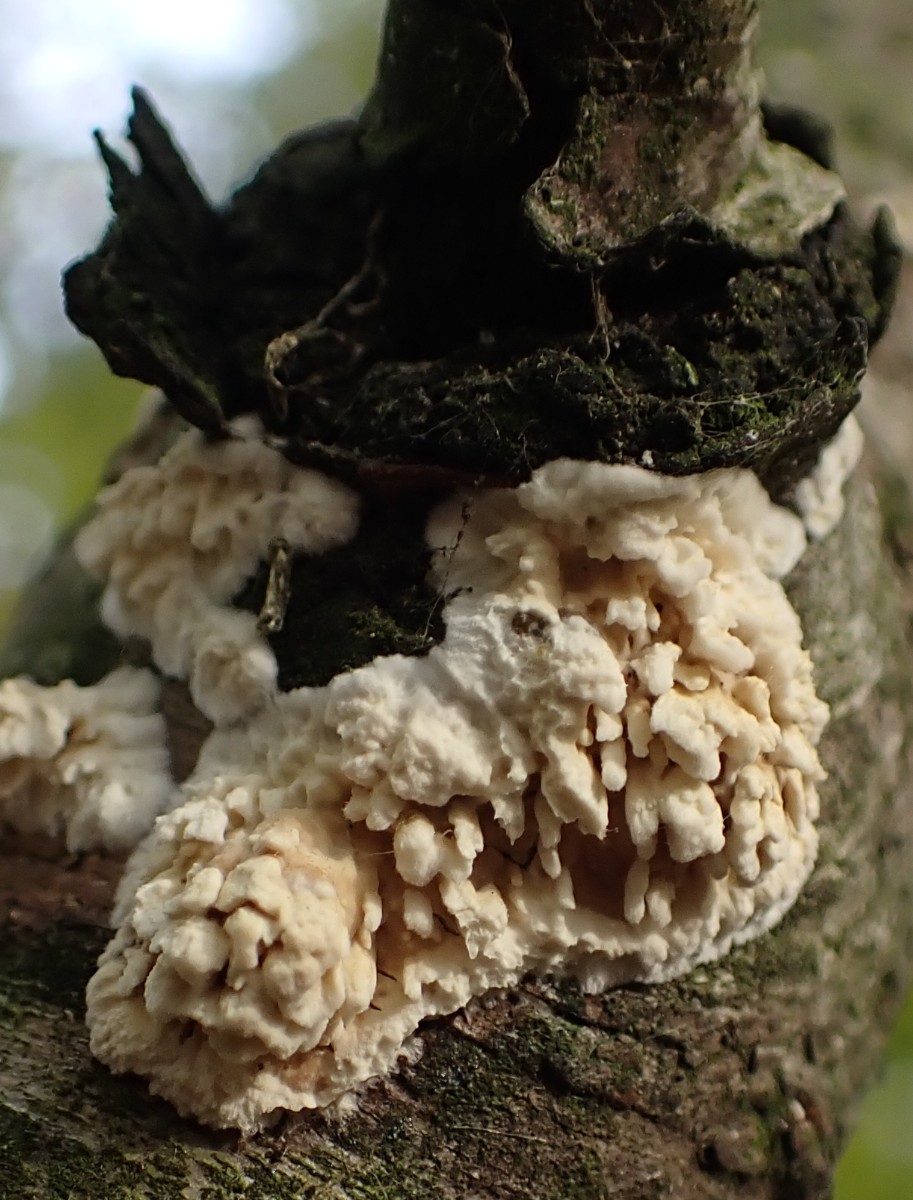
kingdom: Fungi
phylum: Basidiomycota
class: Agaricomycetes
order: Hymenochaetales
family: Schizoporaceae
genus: Xylodon
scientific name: Xylodon radula
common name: grovtandet kalkskind
